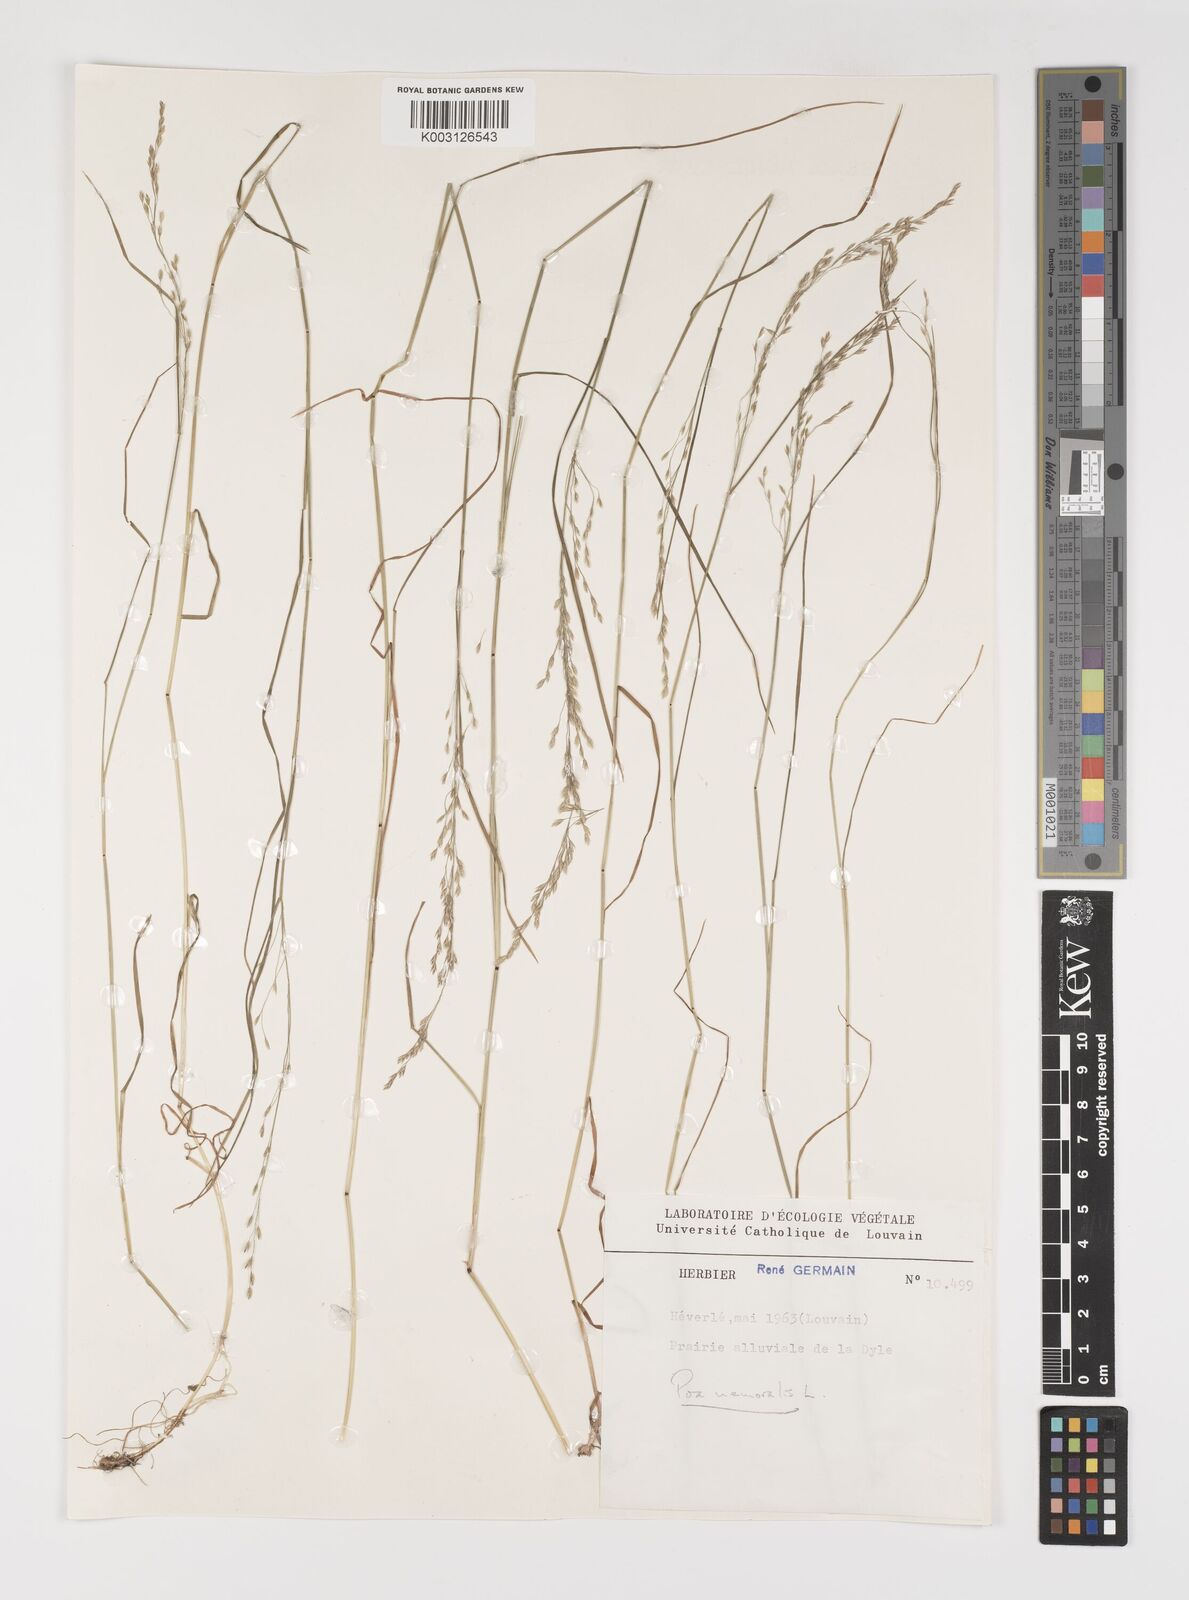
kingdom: Plantae
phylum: Tracheophyta
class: Liliopsida
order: Poales
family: Poaceae
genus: Poa
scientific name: Poa nemoralis
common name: Wood bluegrass
